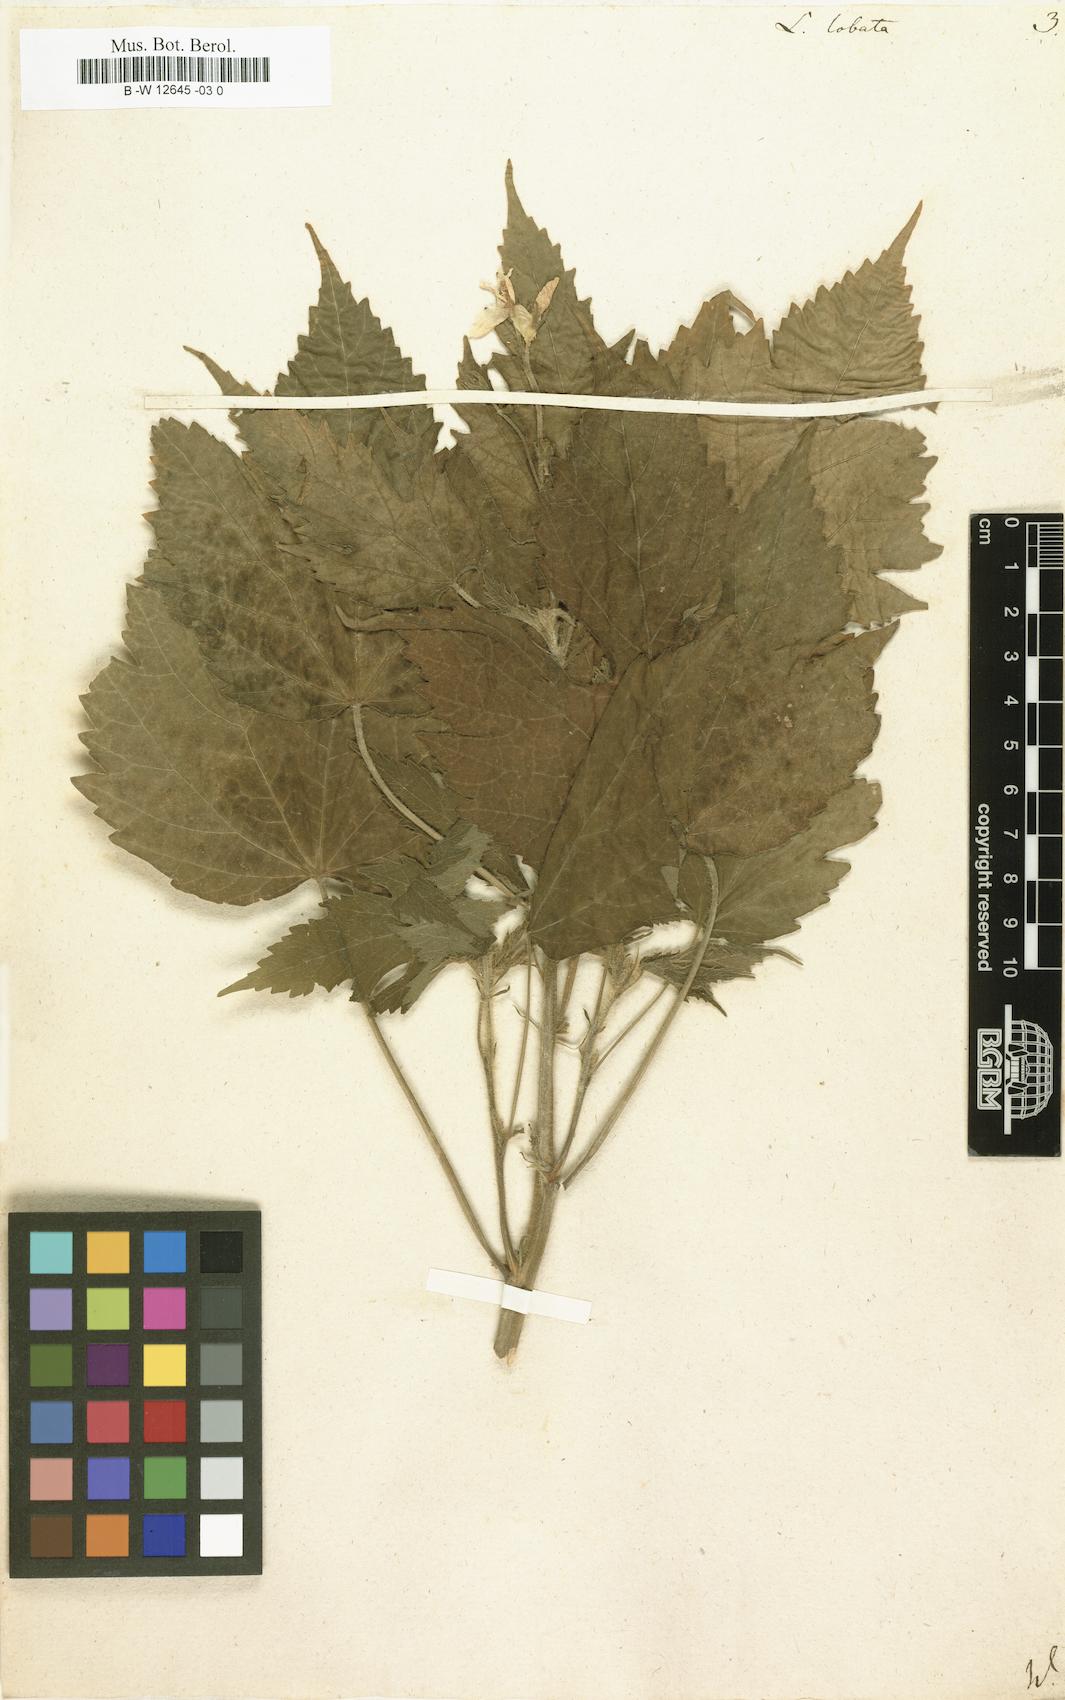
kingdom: Plantae
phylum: Tracheophyta
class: Magnoliopsida
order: Malvales
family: Malvaceae
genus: Hibiscus
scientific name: Hibiscus lobatus
